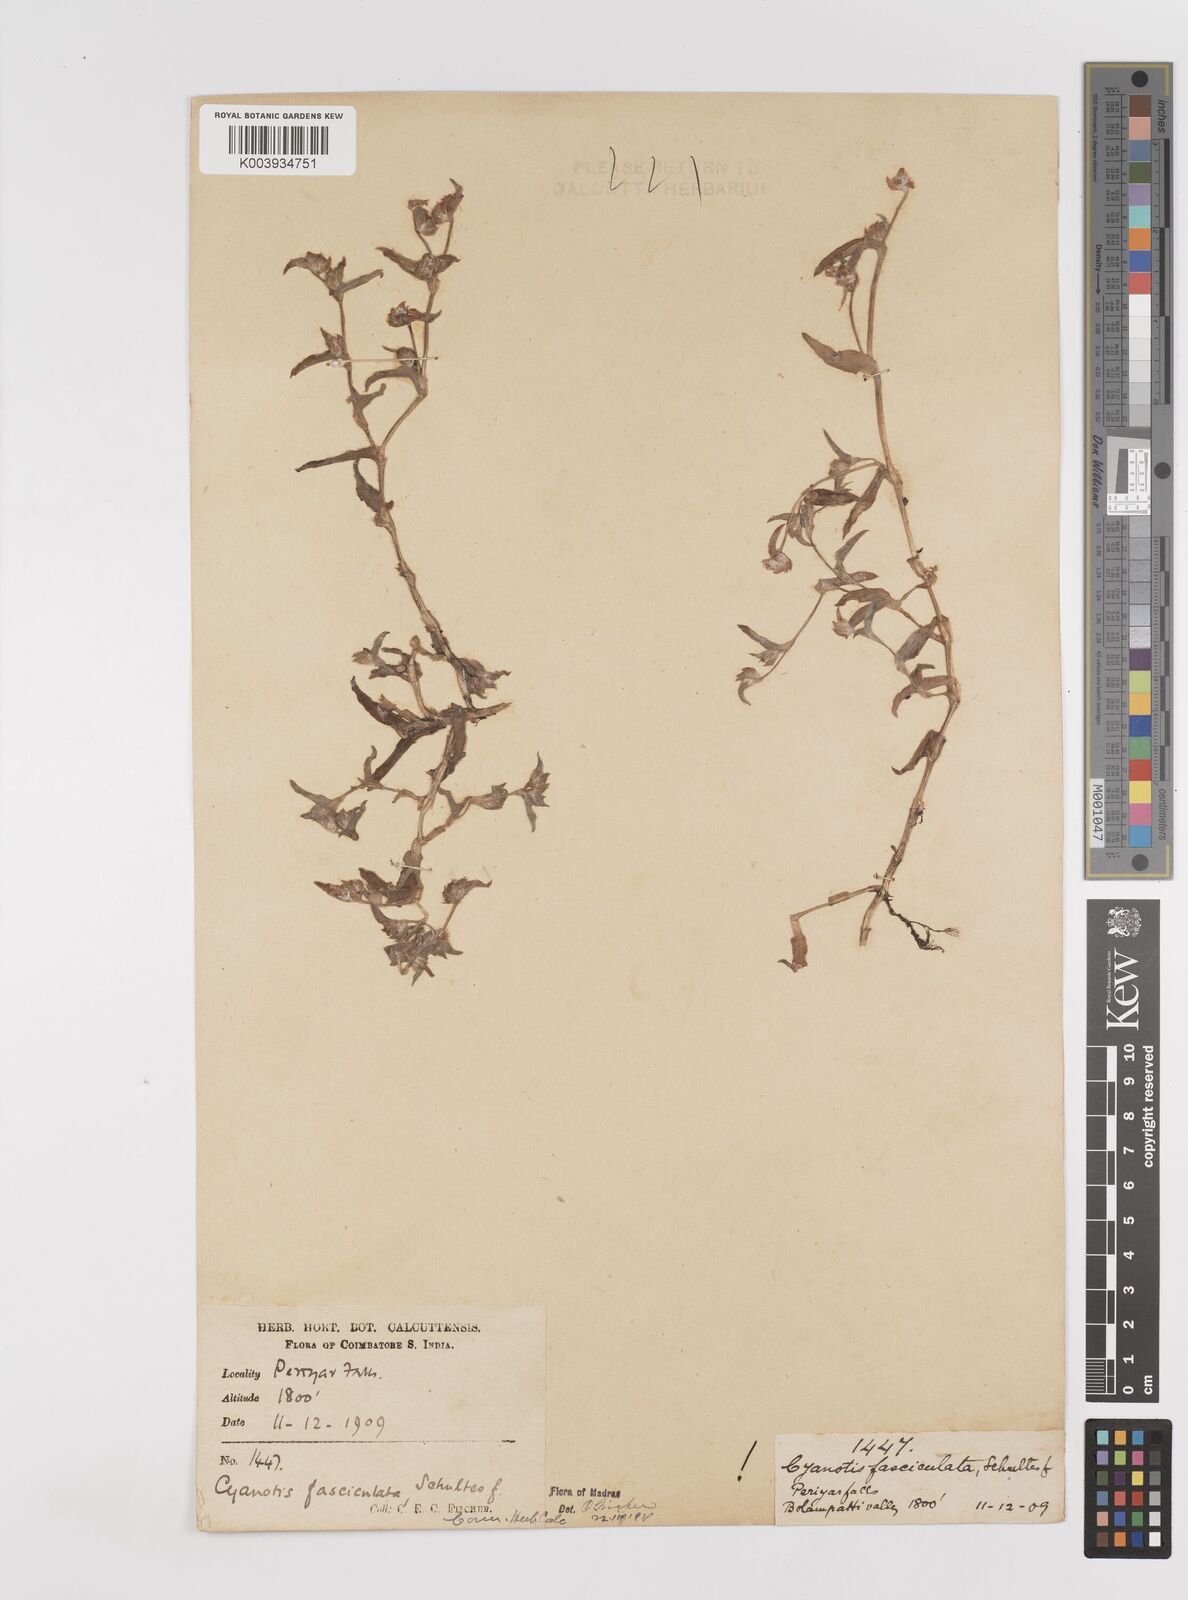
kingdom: Plantae
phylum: Tracheophyta
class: Liliopsida
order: Commelinales
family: Commelinaceae
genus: Cyanotis
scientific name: Cyanotis fasciculata
